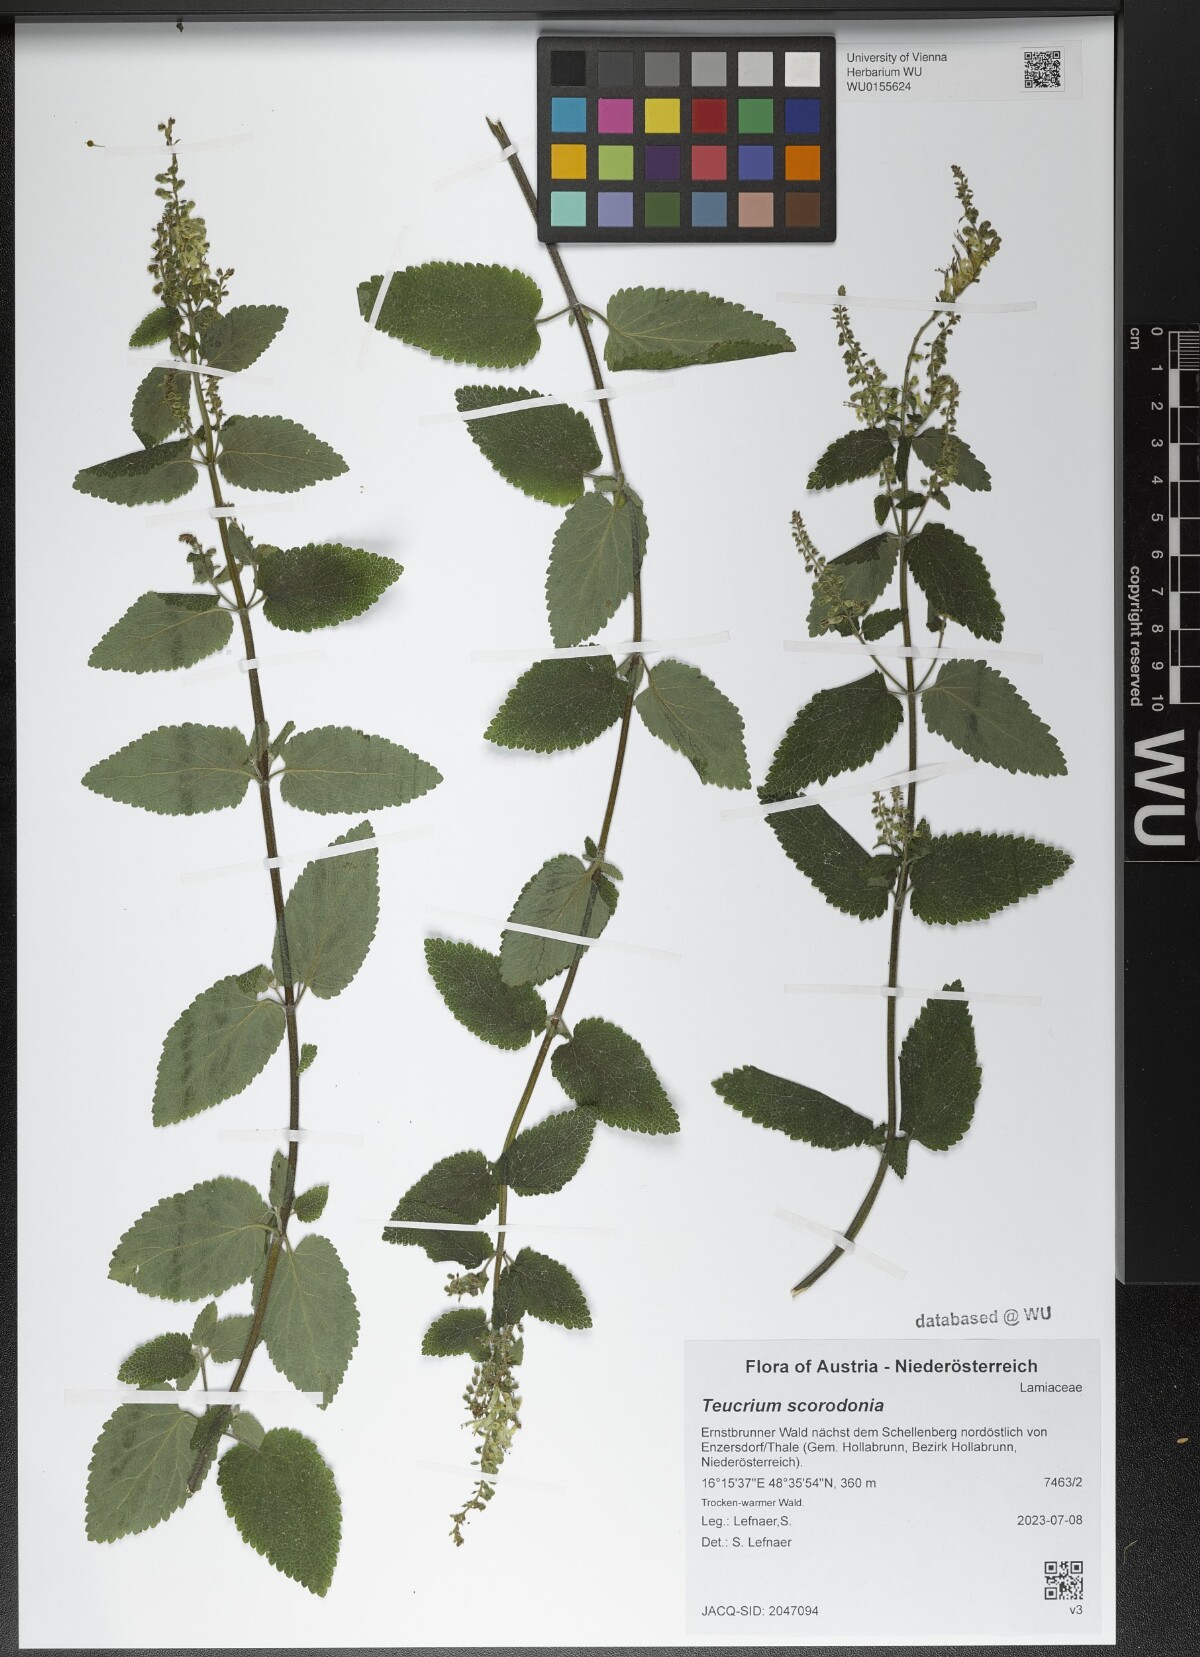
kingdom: Plantae
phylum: Tracheophyta
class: Magnoliopsida
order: Lamiales
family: Lamiaceae
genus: Teucrium
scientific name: Teucrium scorodonia
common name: Woodland germander
